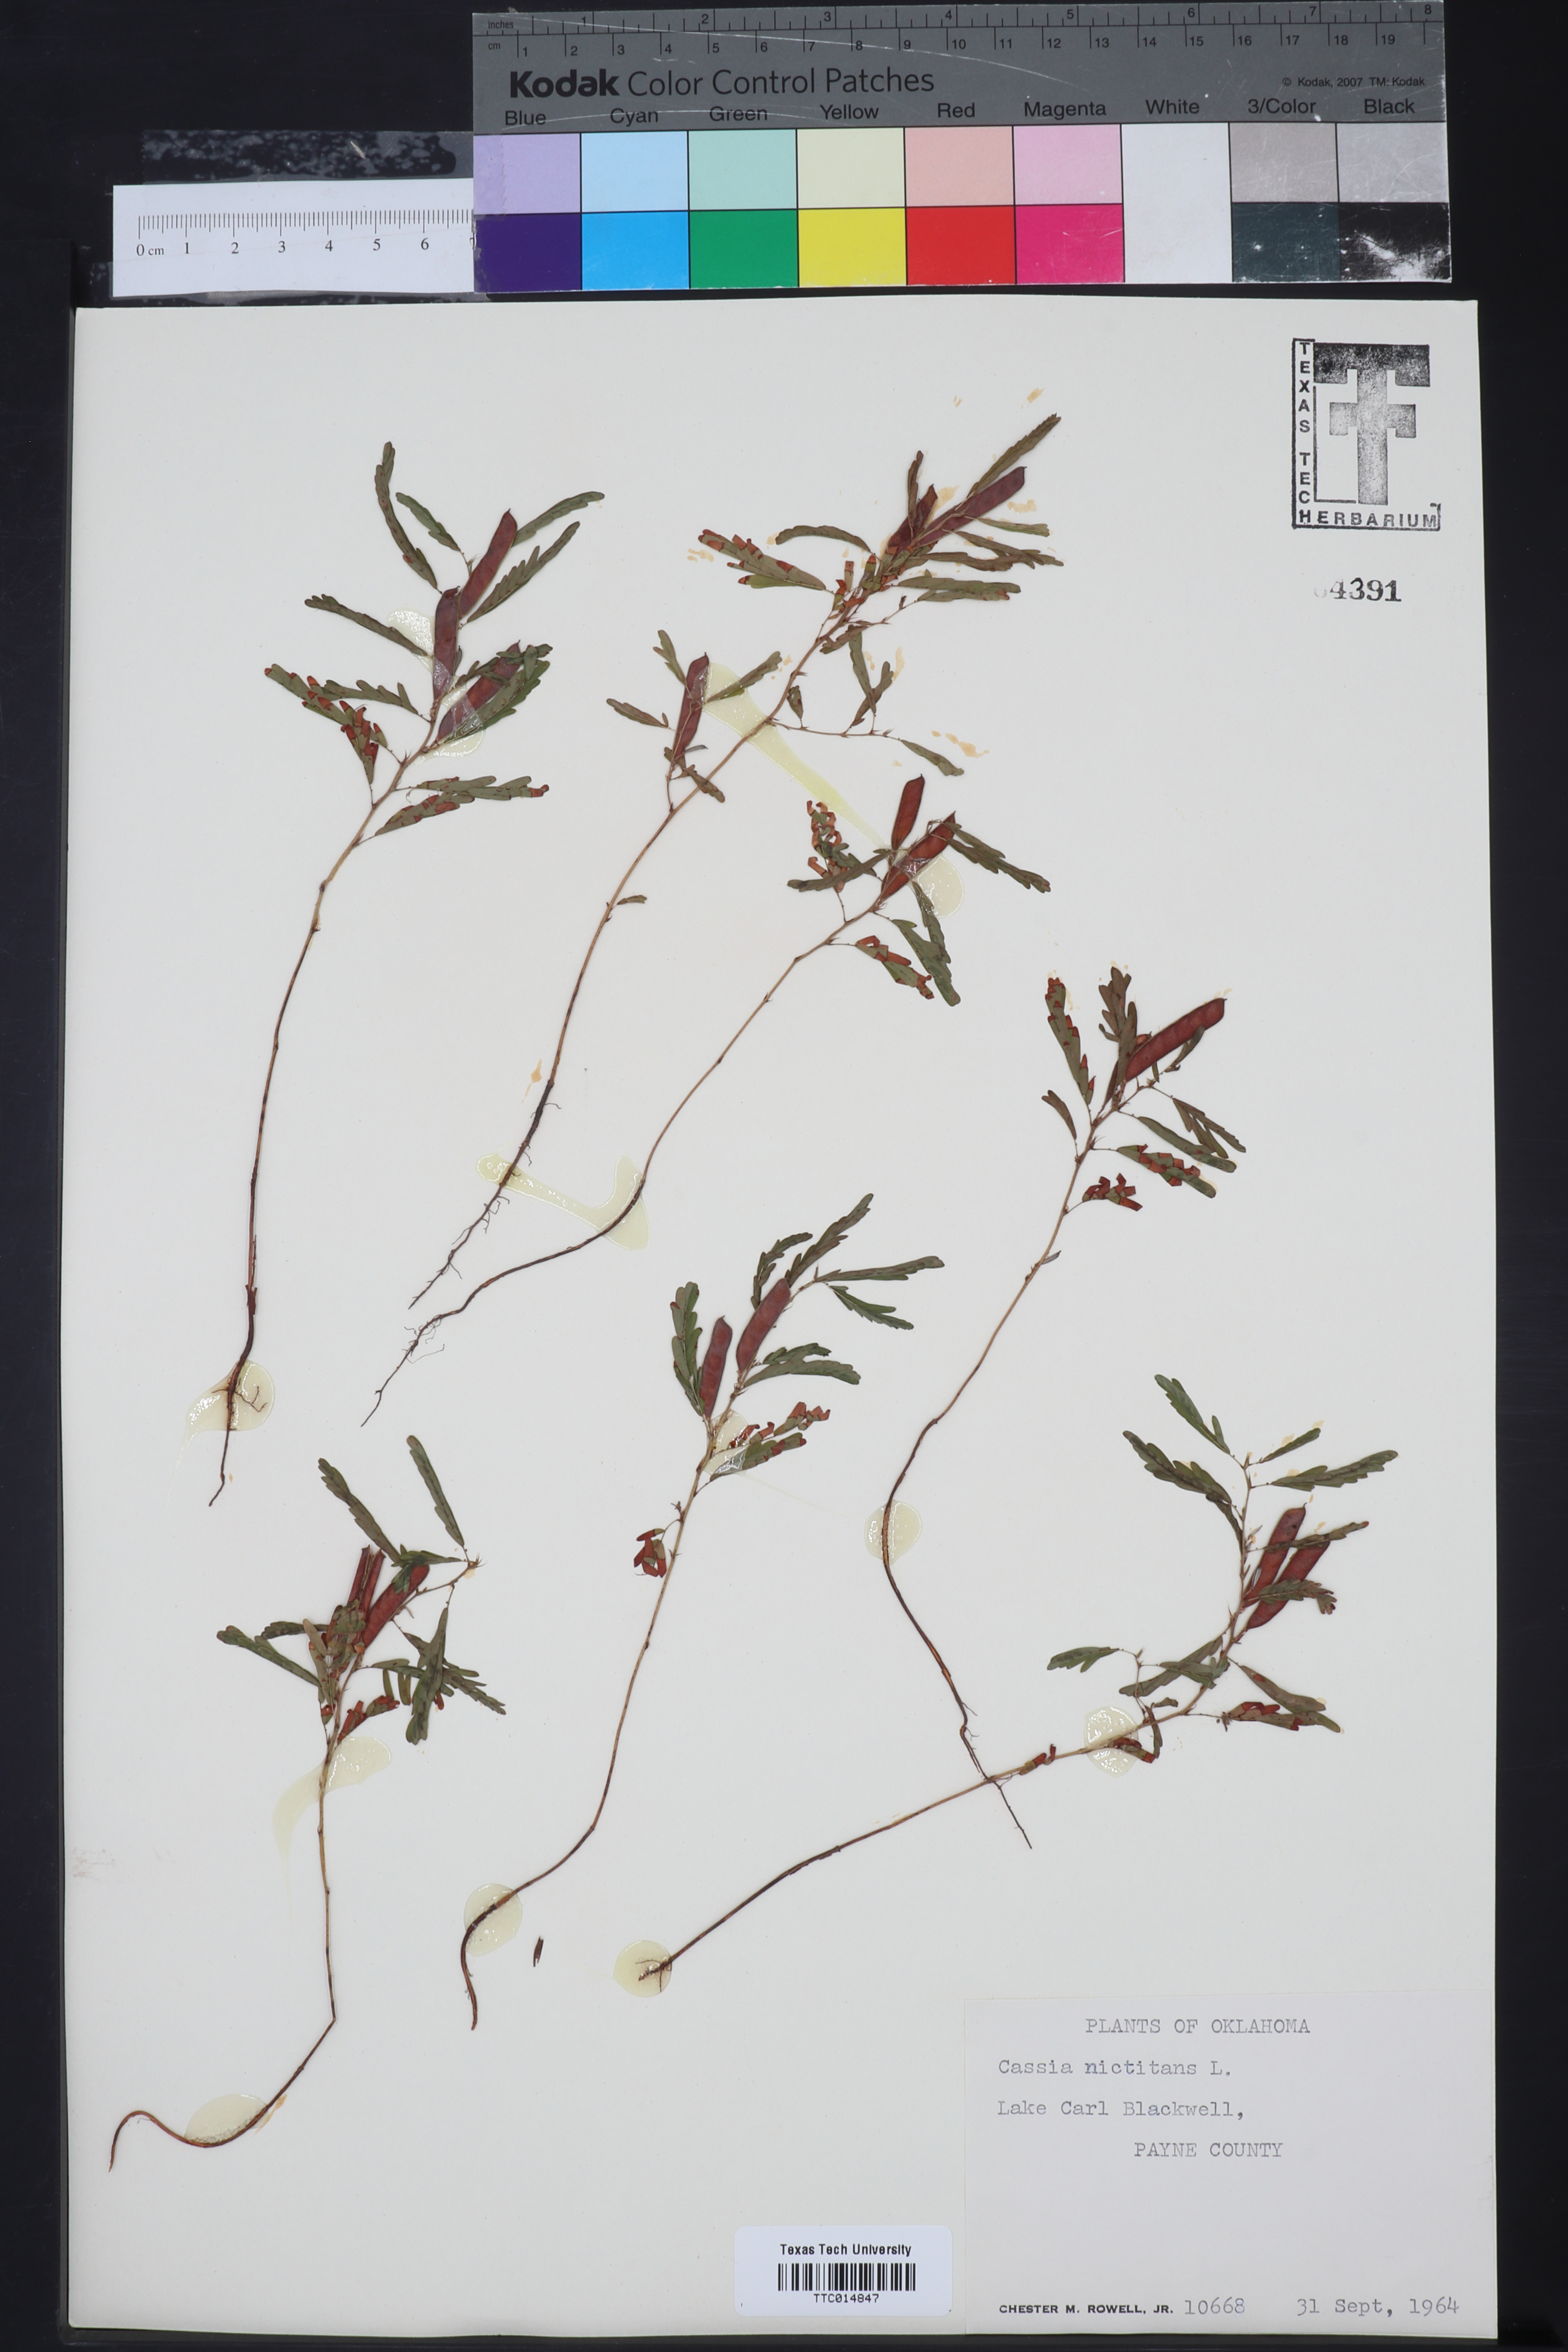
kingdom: Plantae
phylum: Tracheophyta
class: Magnoliopsida
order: Fabales
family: Fabaceae
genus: Chamaecrista
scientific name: Chamaecrista nictitans
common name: Sensitive cassia
